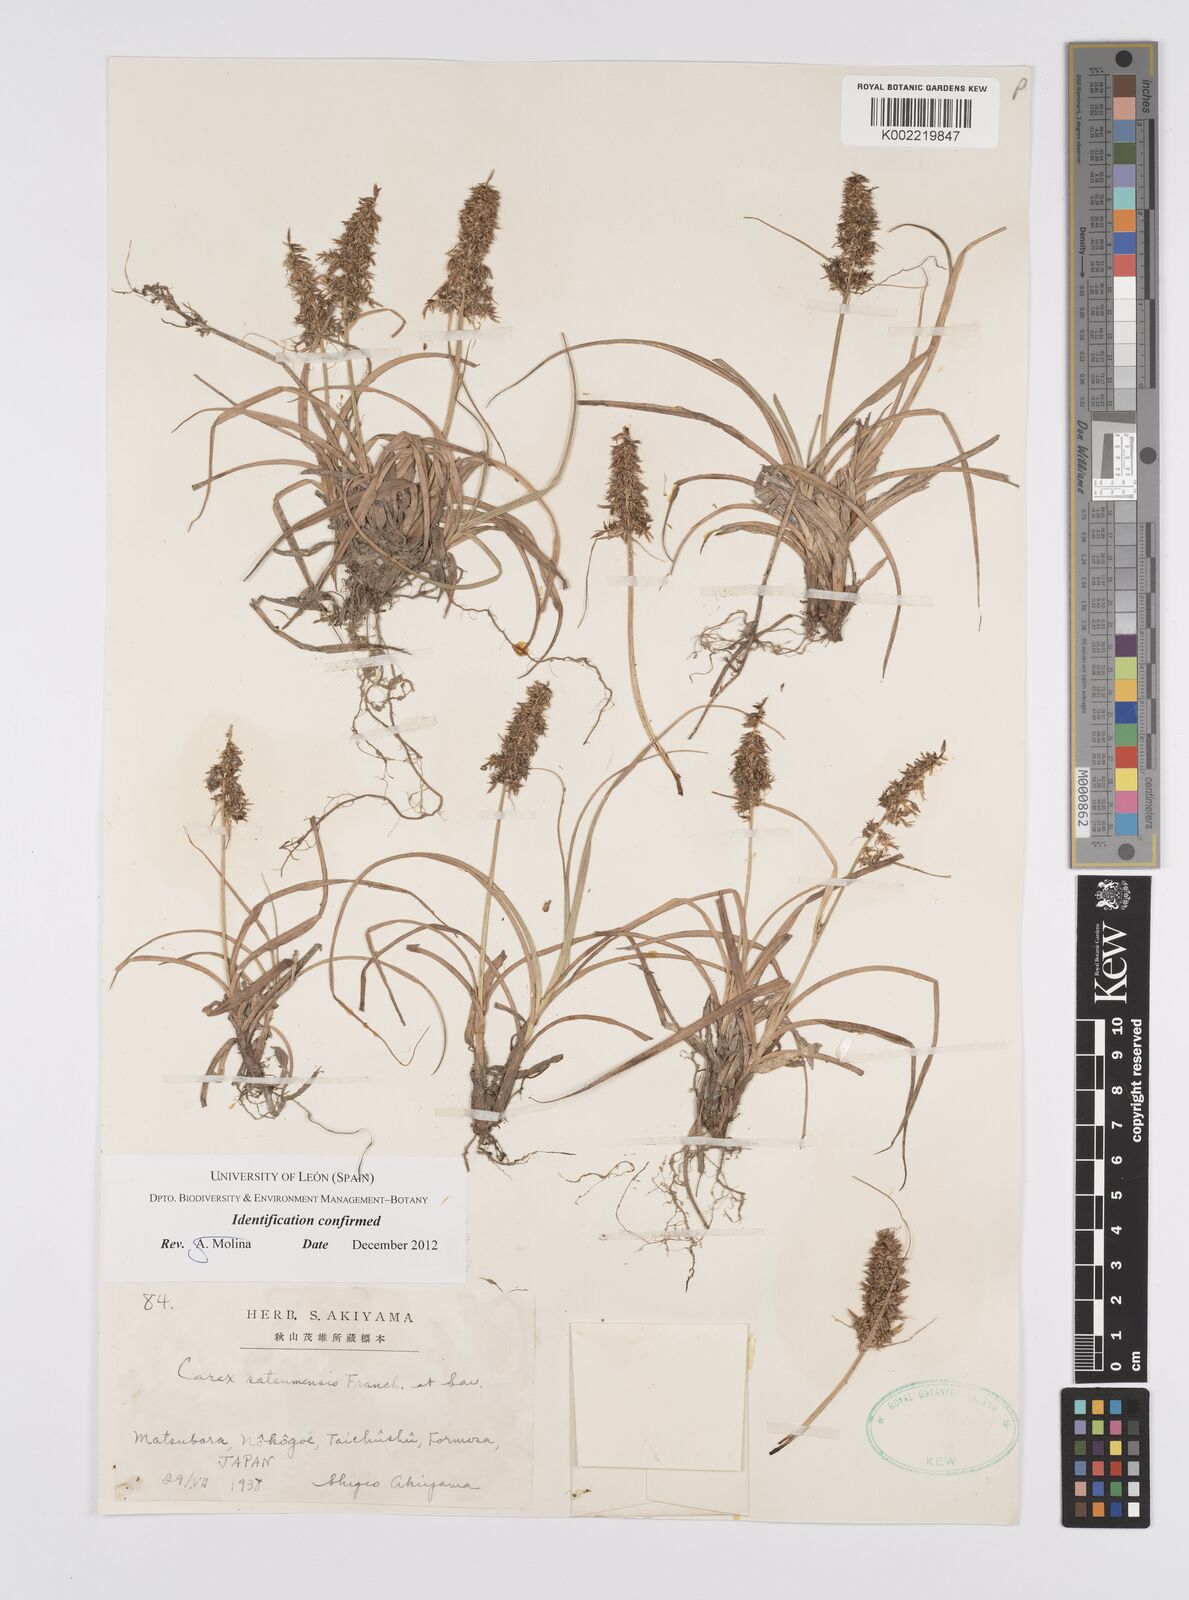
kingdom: Plantae
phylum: Tracheophyta
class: Liliopsida
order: Poales
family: Cyperaceae
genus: Carex
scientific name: Carex satsumensis
